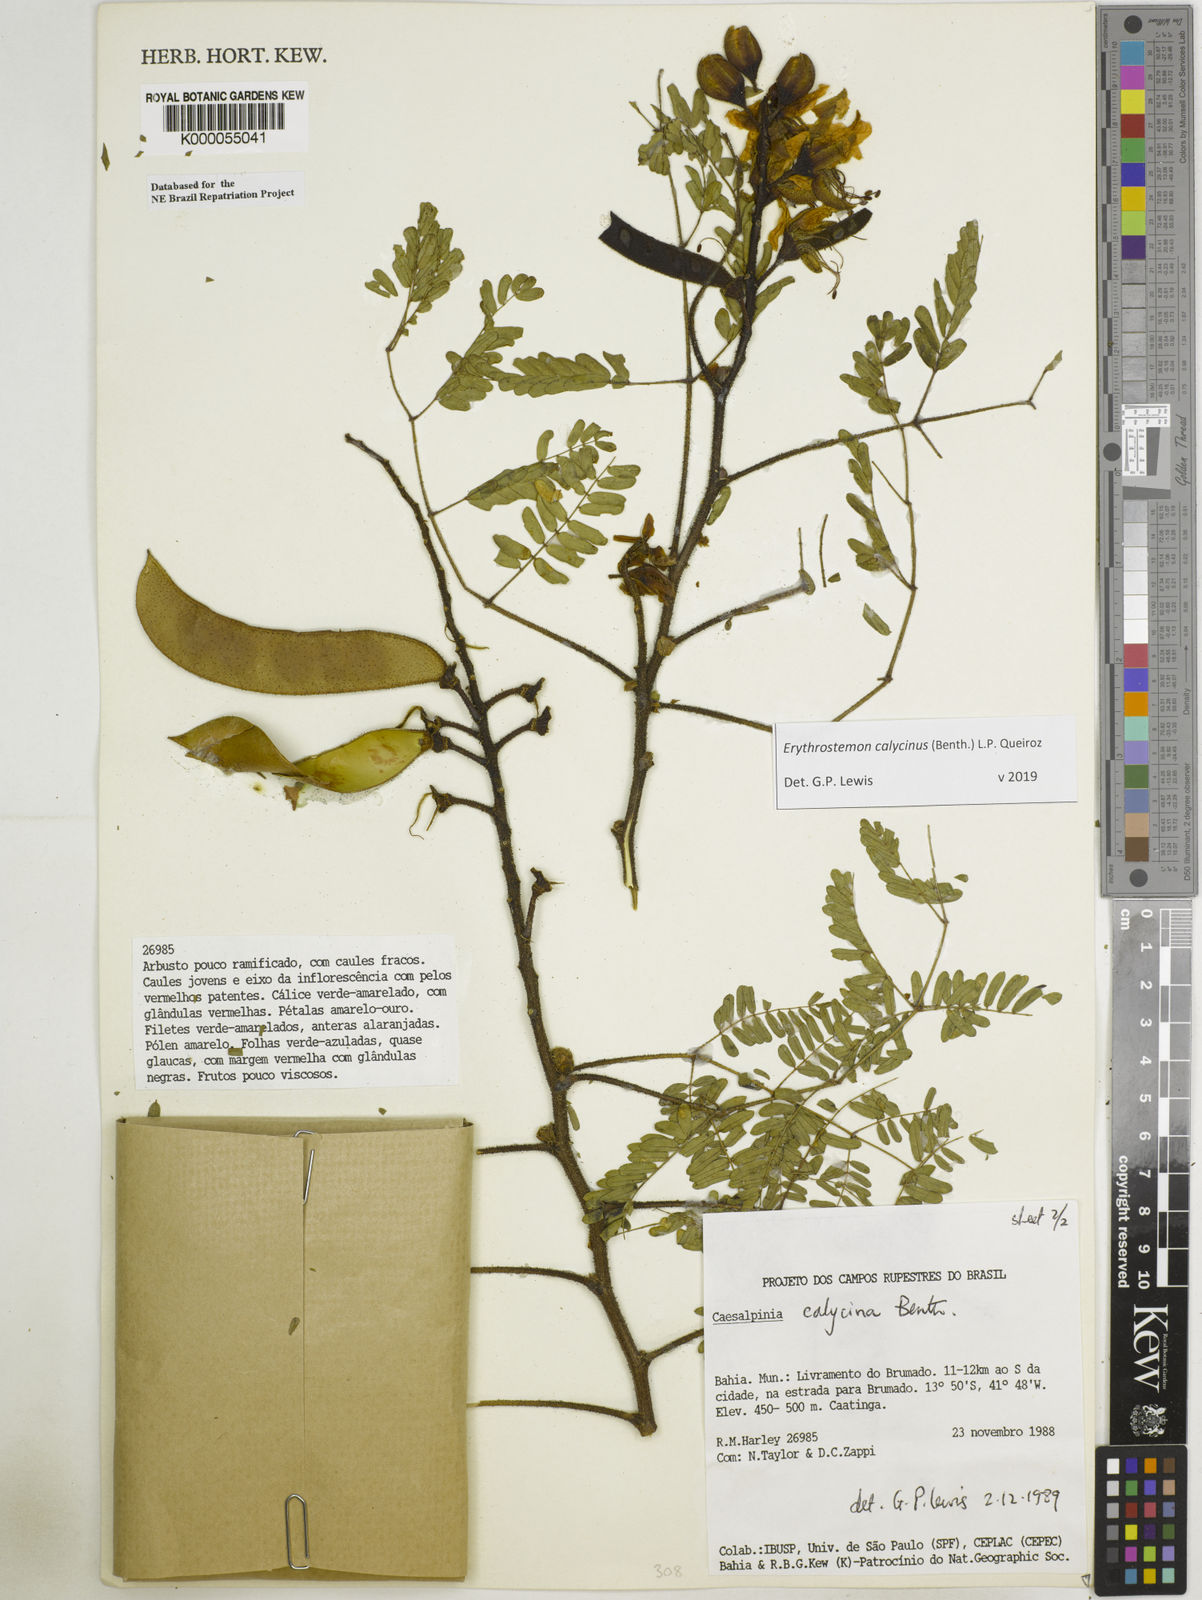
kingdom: Plantae
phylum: Tracheophyta
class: Magnoliopsida
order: Fabales
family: Fabaceae
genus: Erythrostemon
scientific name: Erythrostemon calycinus
